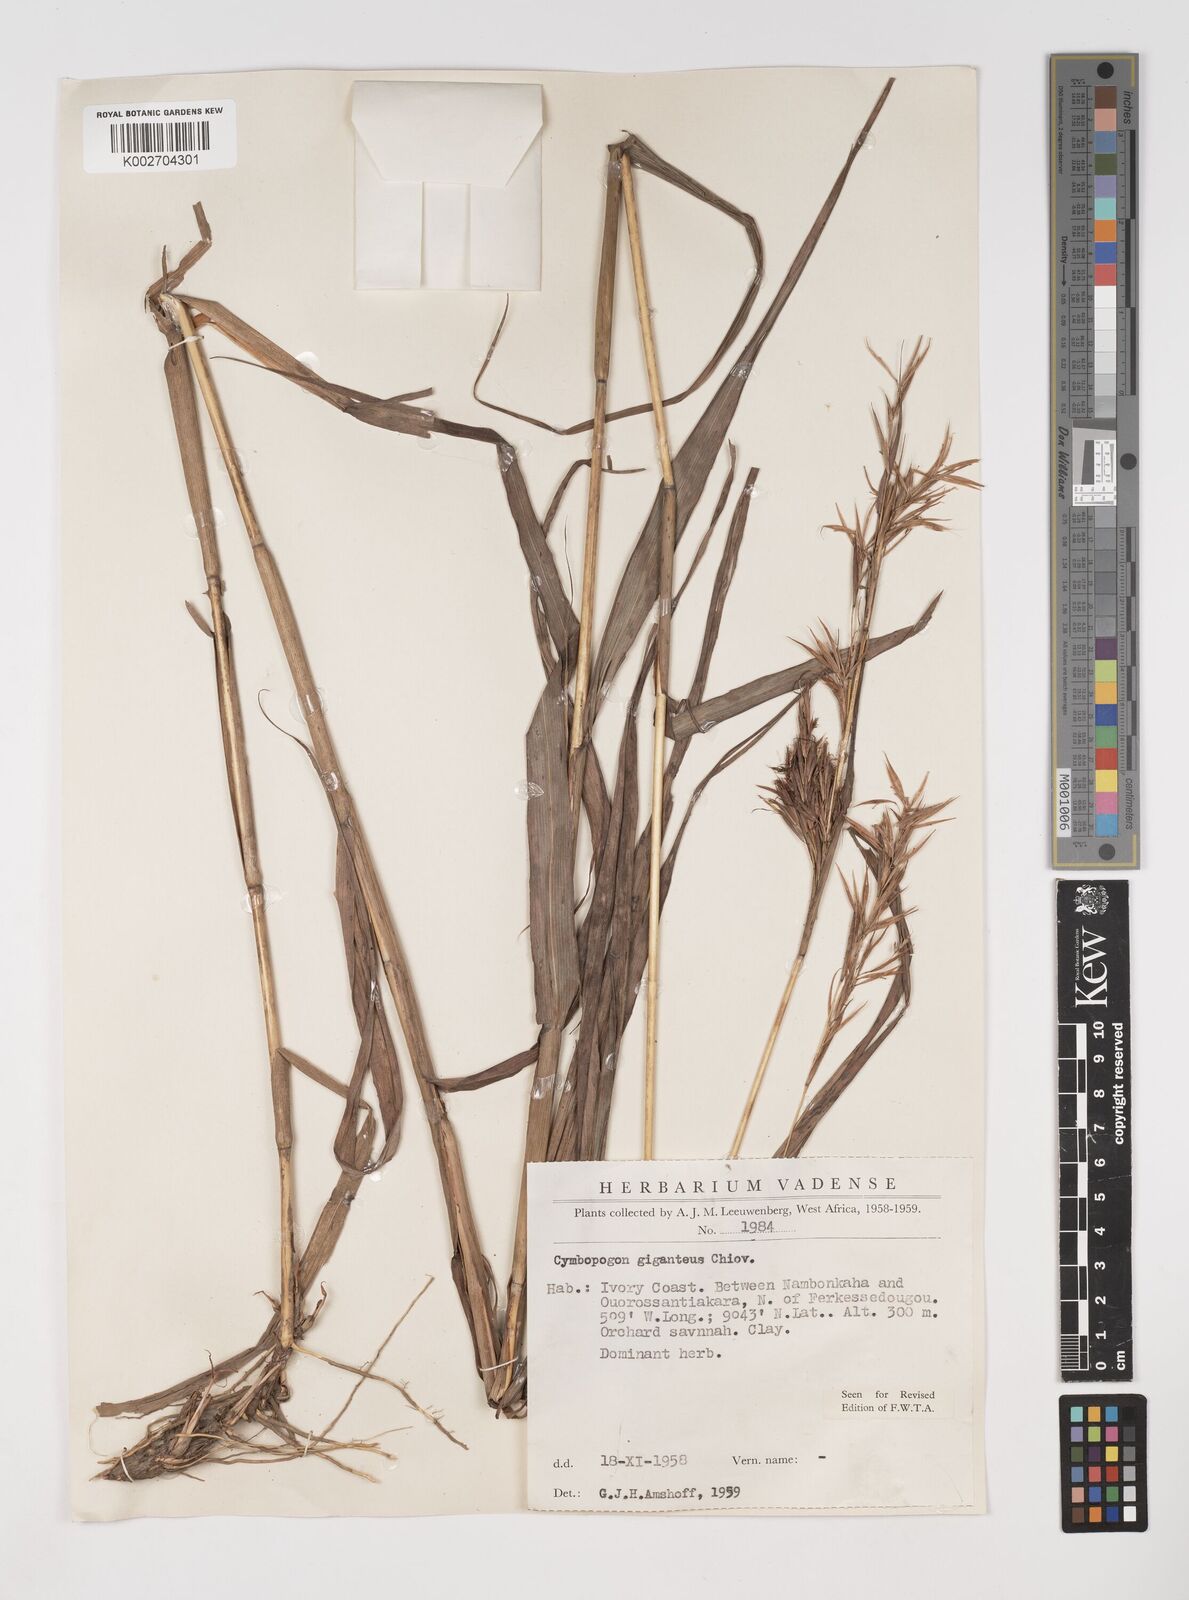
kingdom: Plantae
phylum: Tracheophyta
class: Liliopsida
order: Poales
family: Poaceae
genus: Cymbopogon
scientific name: Cymbopogon giganteus
